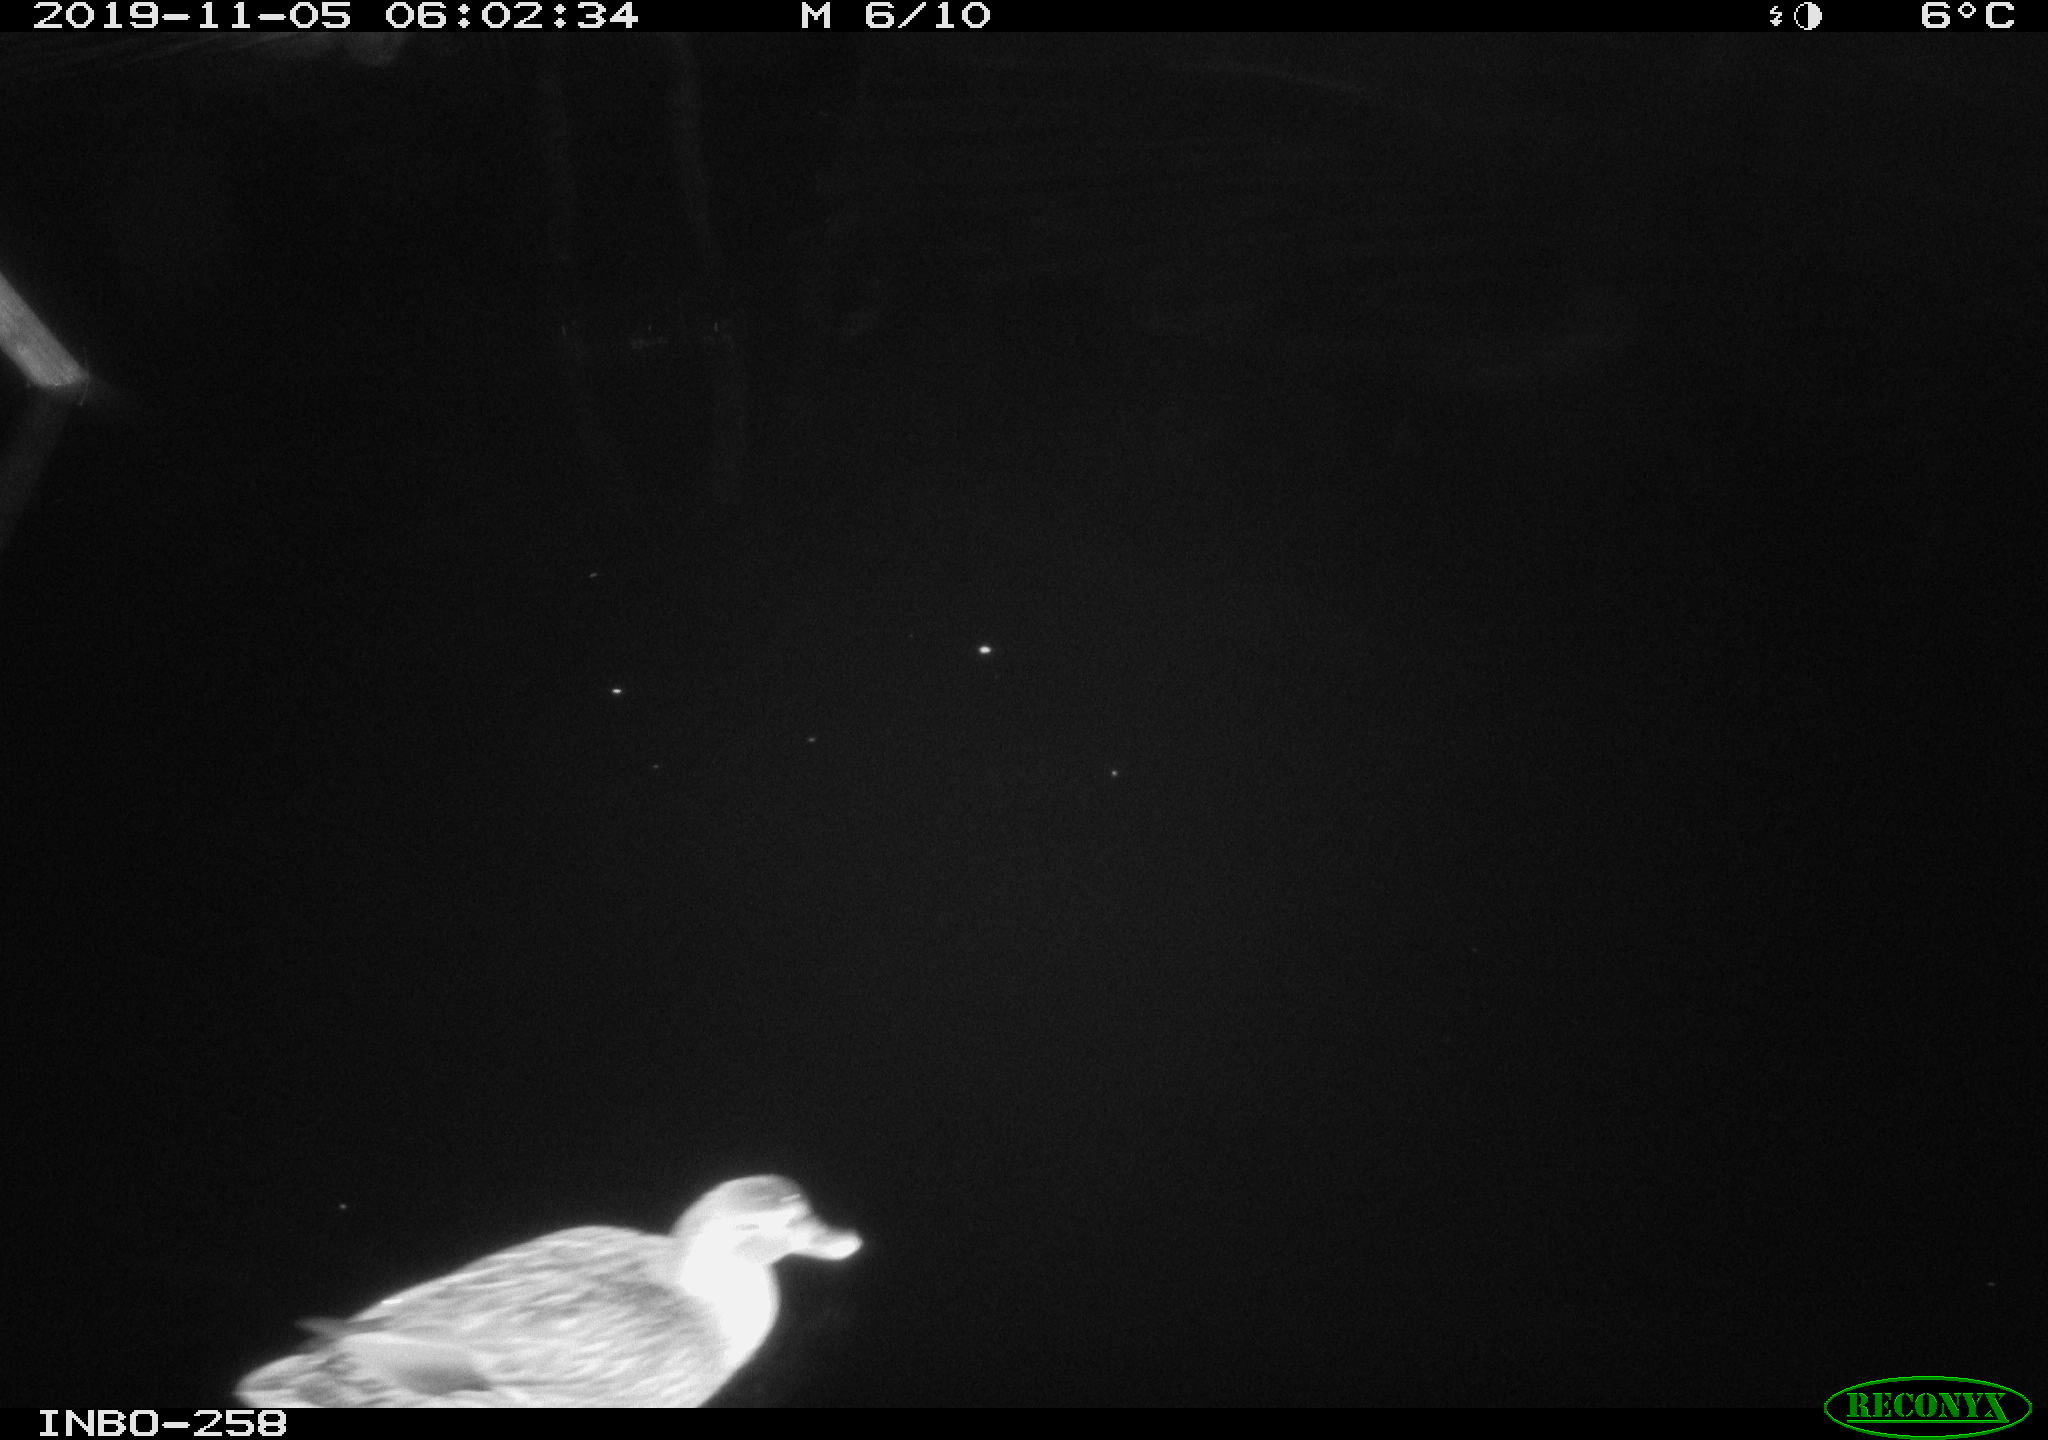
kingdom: Animalia
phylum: Chordata
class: Aves
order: Anseriformes
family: Anatidae
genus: Anas
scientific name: Anas platyrhynchos
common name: Mallard
